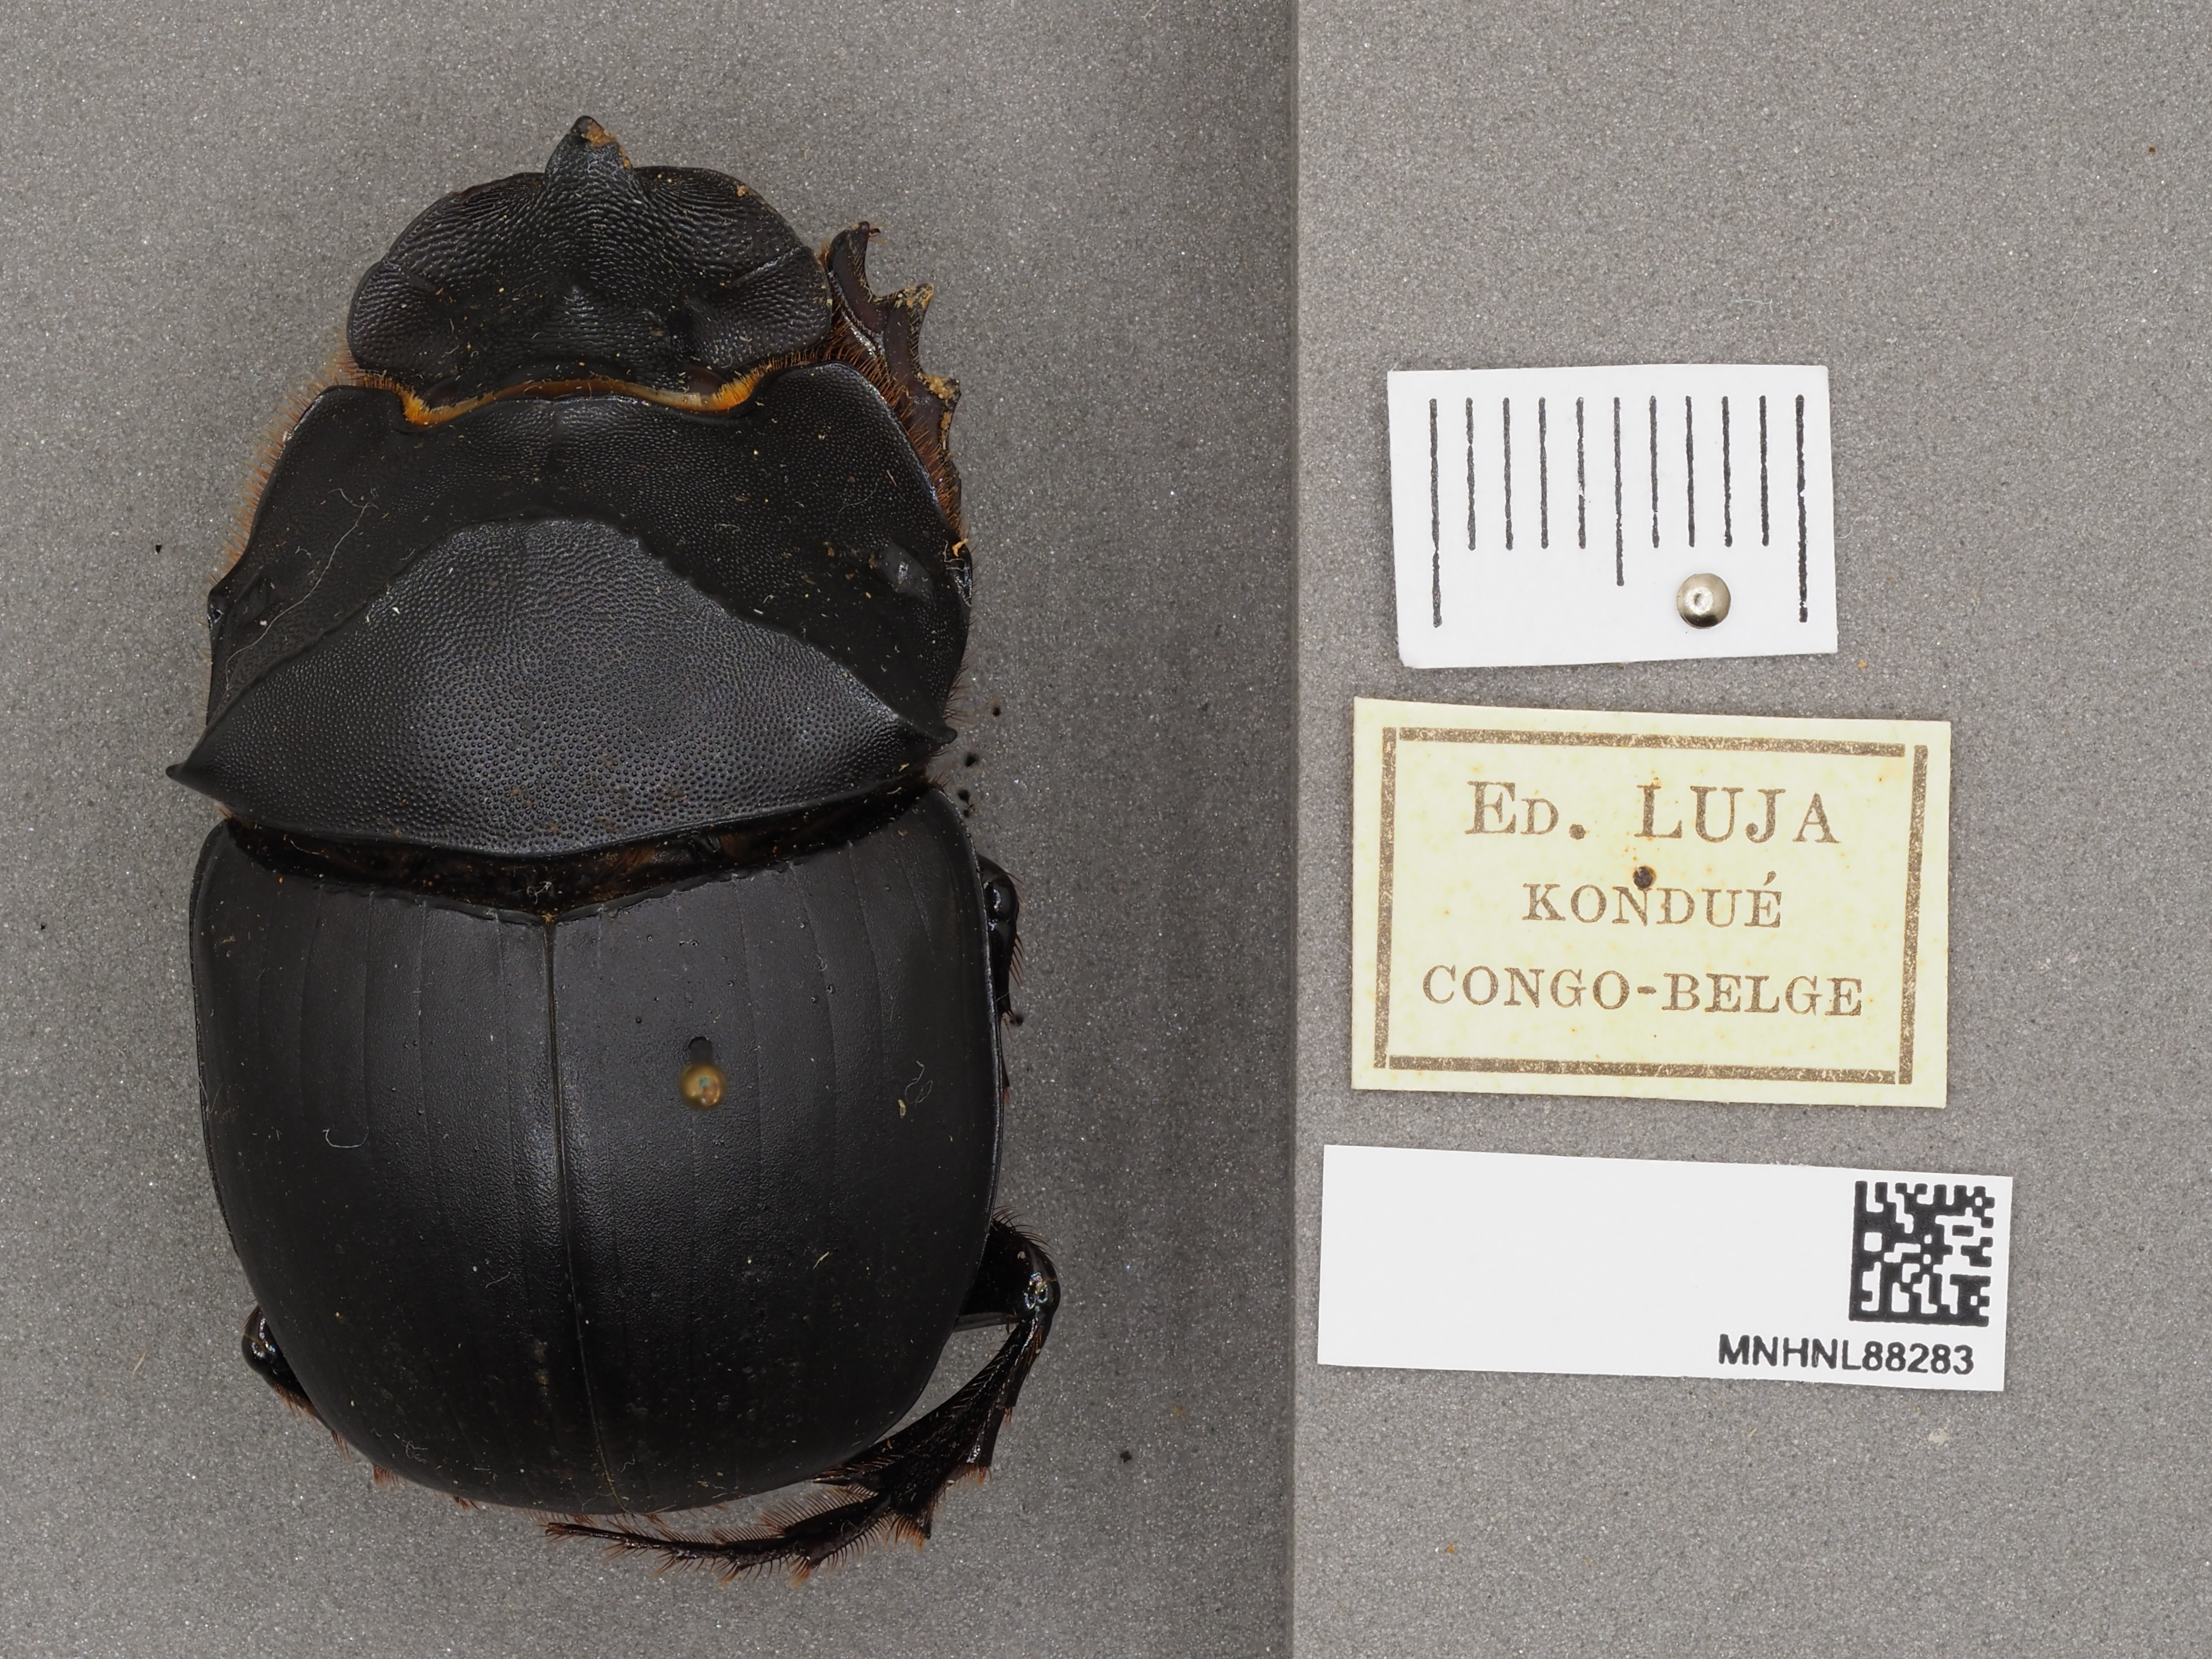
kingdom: Animalia
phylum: Arthropoda
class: Insecta
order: Coleoptera
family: Scarabaeidae
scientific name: Scarabaeidae
